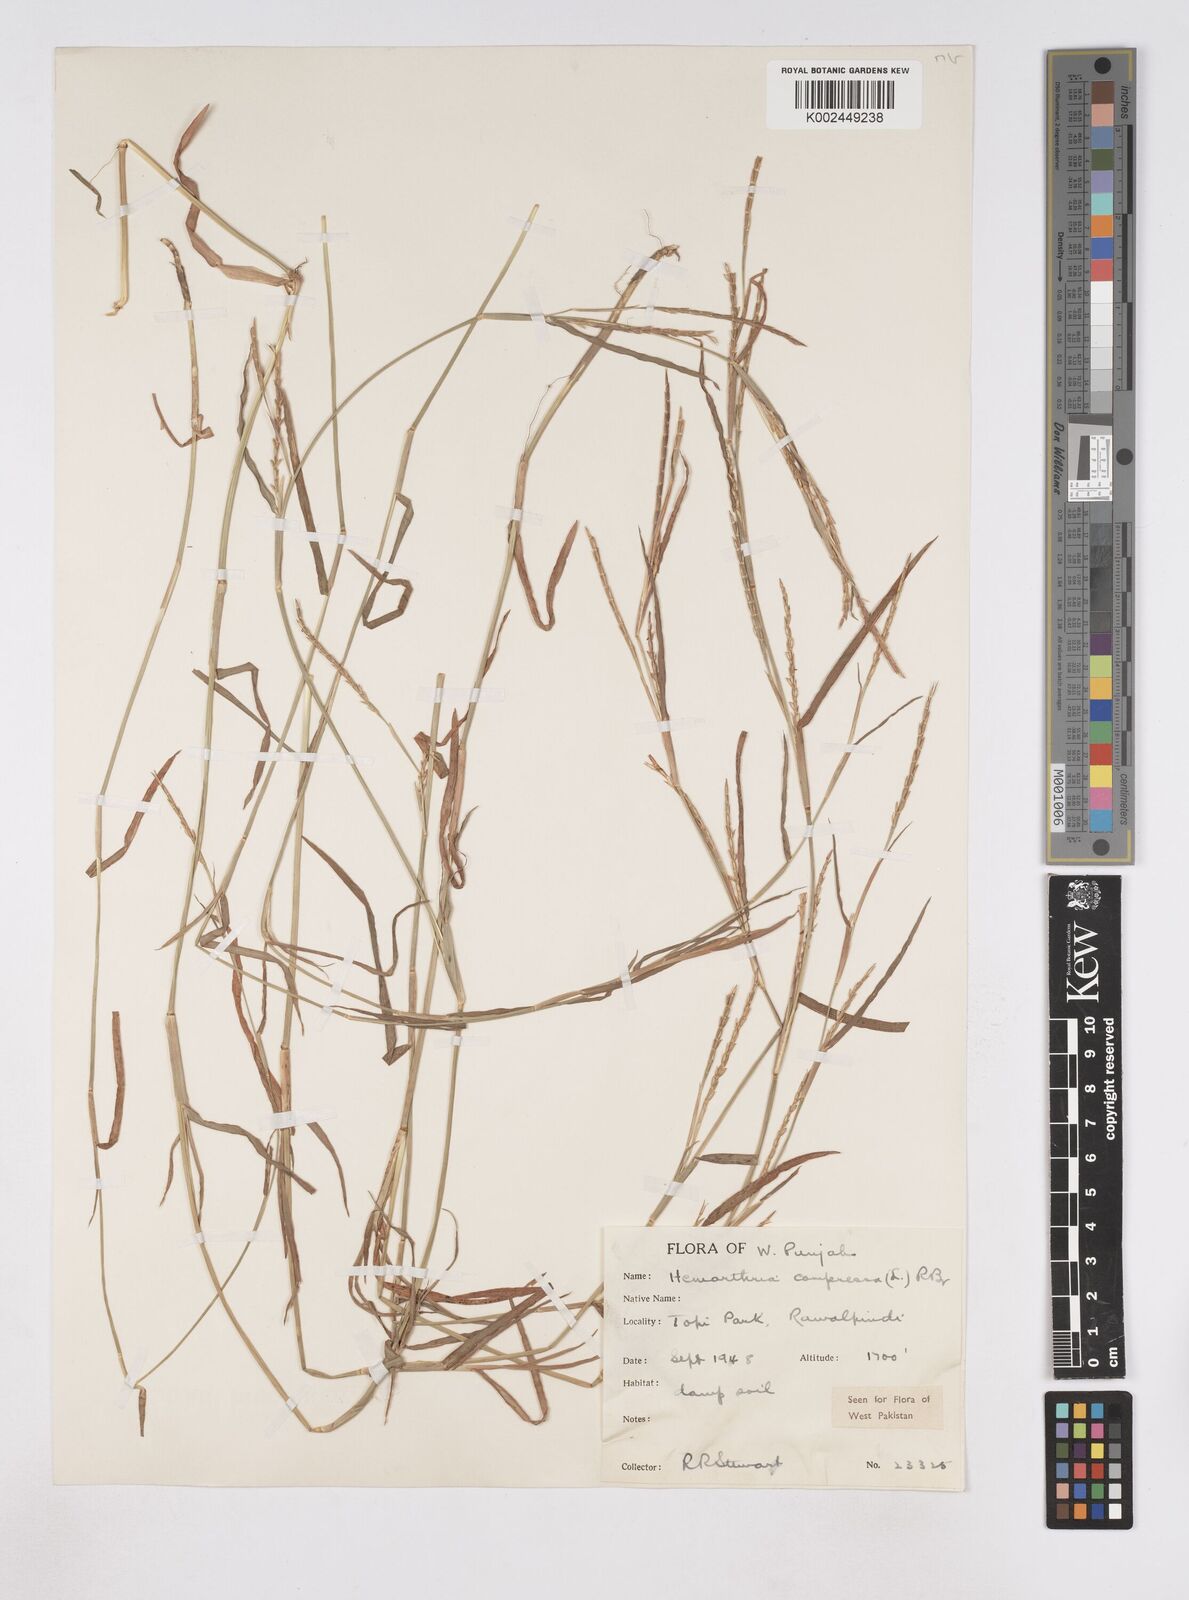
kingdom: Plantae
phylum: Tracheophyta
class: Liliopsida
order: Poales
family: Poaceae
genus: Hemarthria
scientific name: Hemarthria compressa
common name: Whip grass
